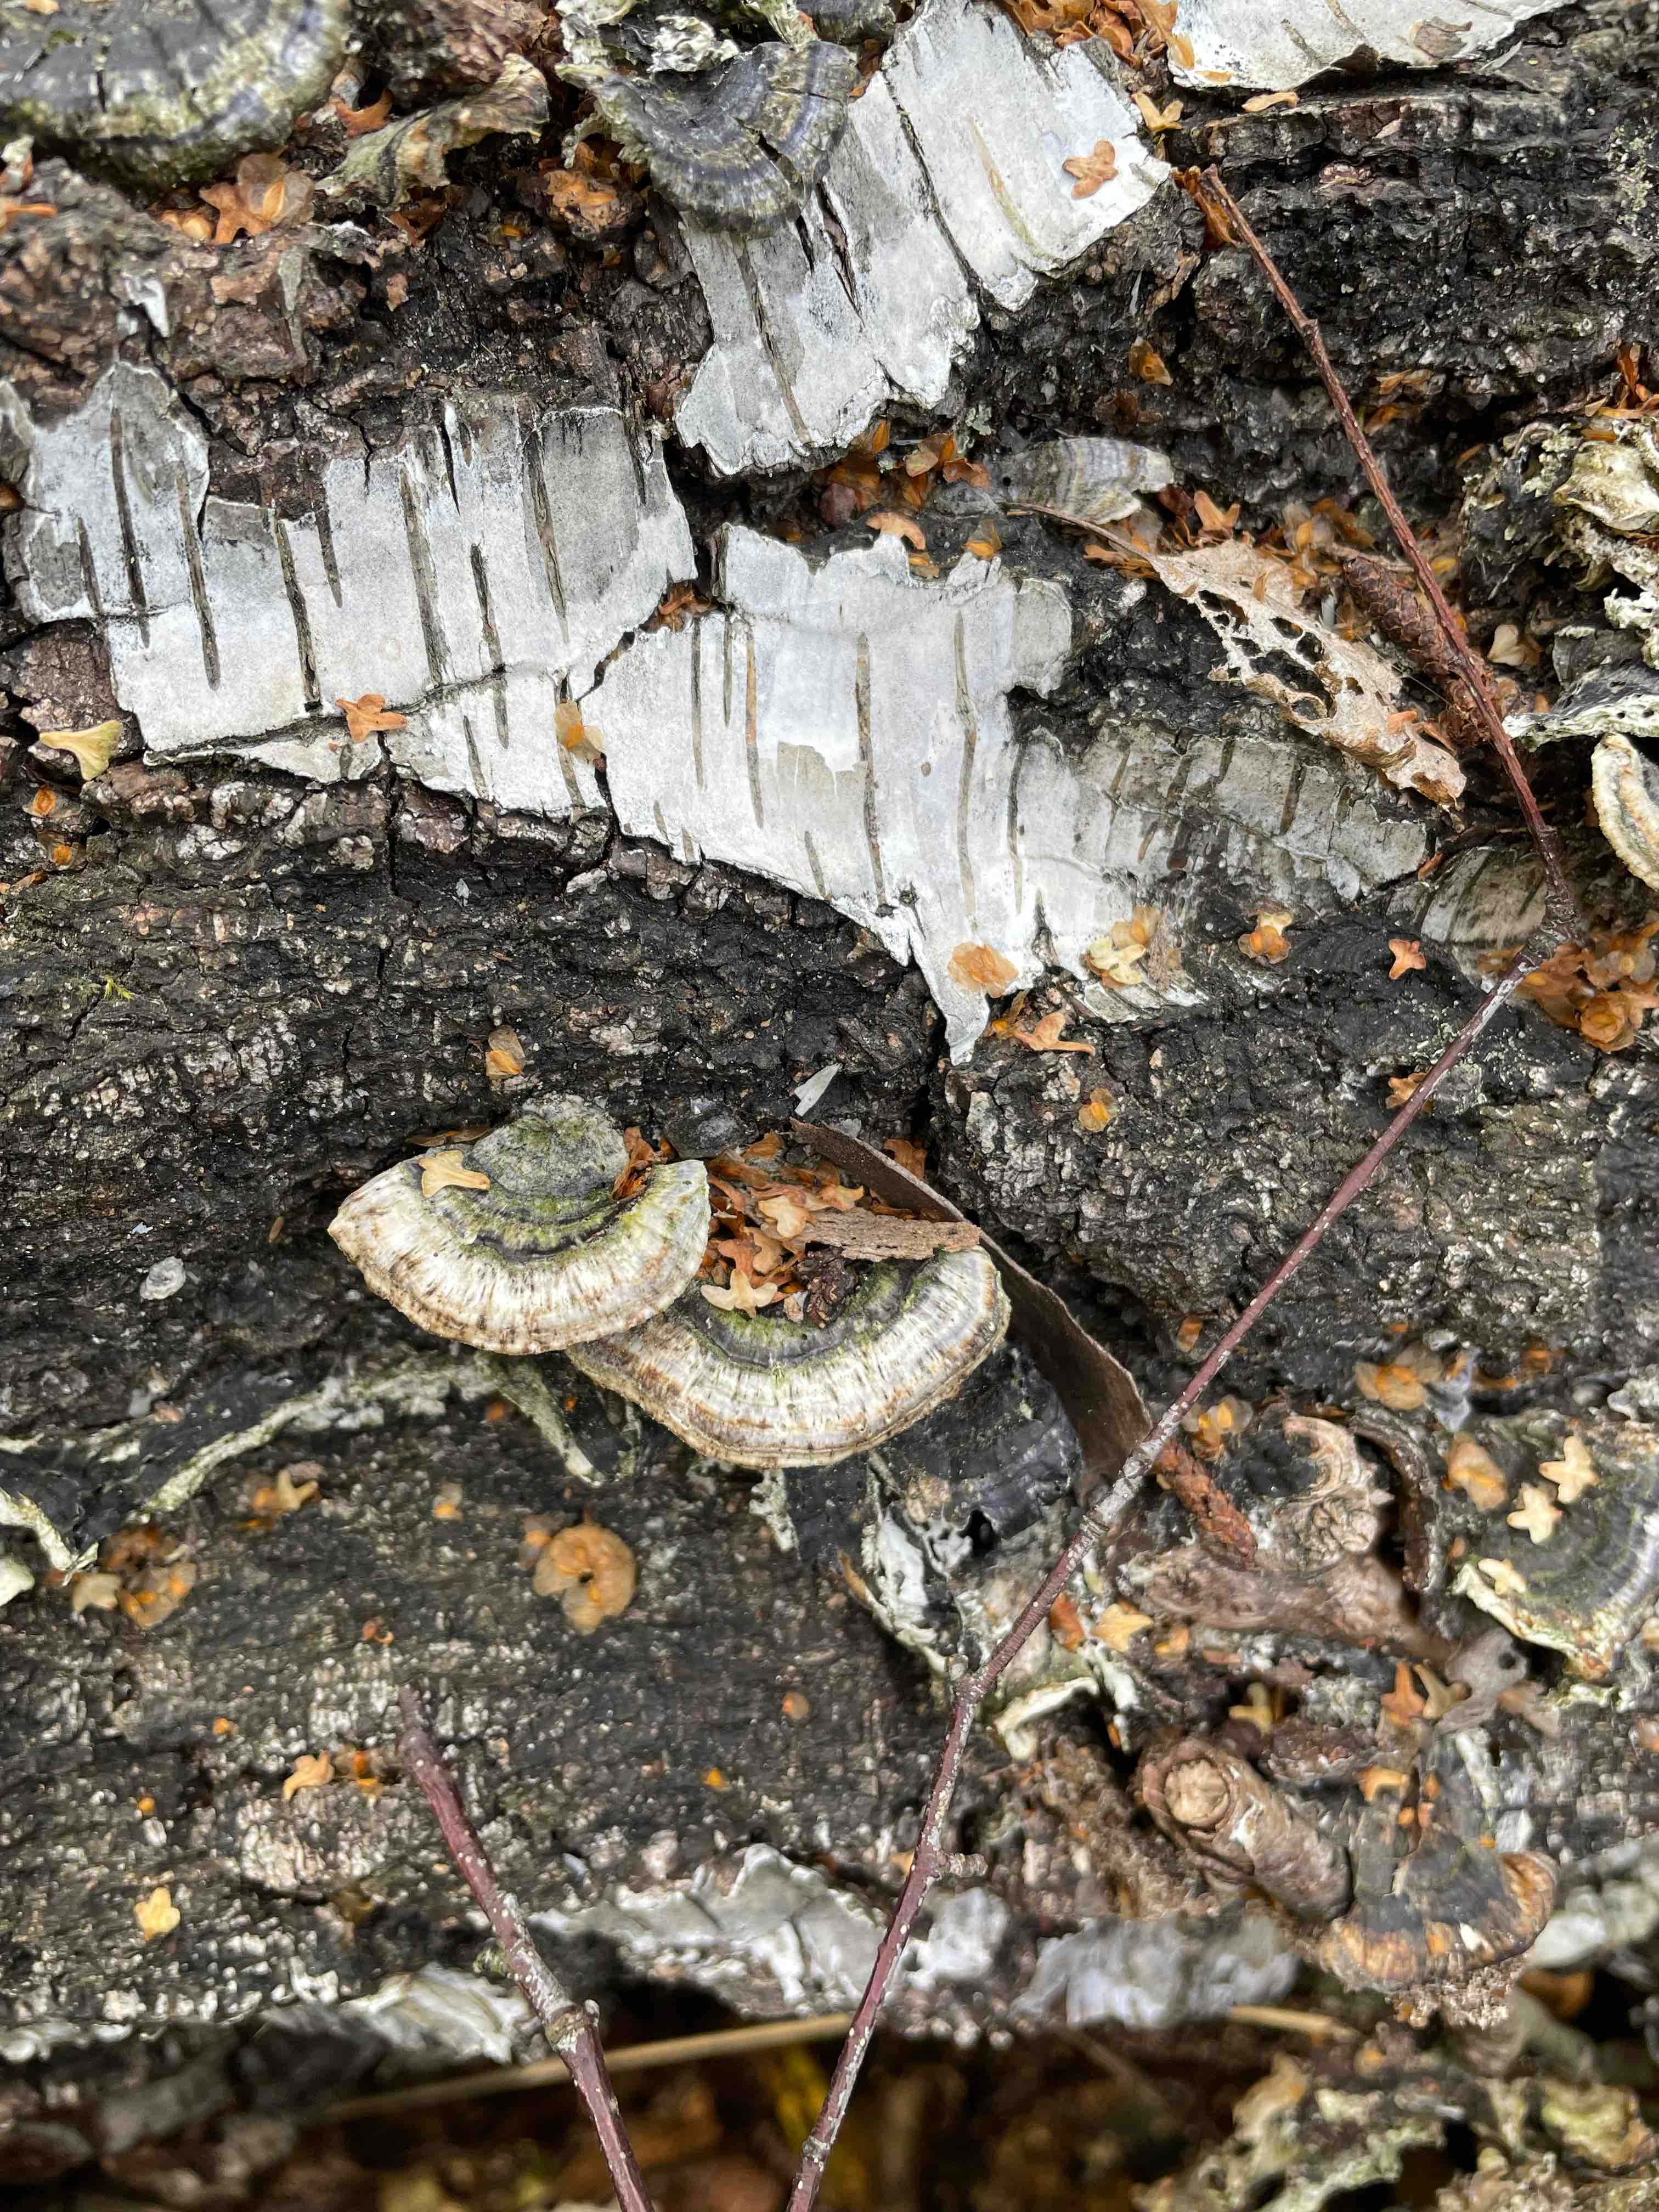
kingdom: Fungi
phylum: Basidiomycota
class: Agaricomycetes
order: Polyporales
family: Polyporaceae
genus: Trametes
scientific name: Trametes versicolor
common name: broget læderporesvamp
